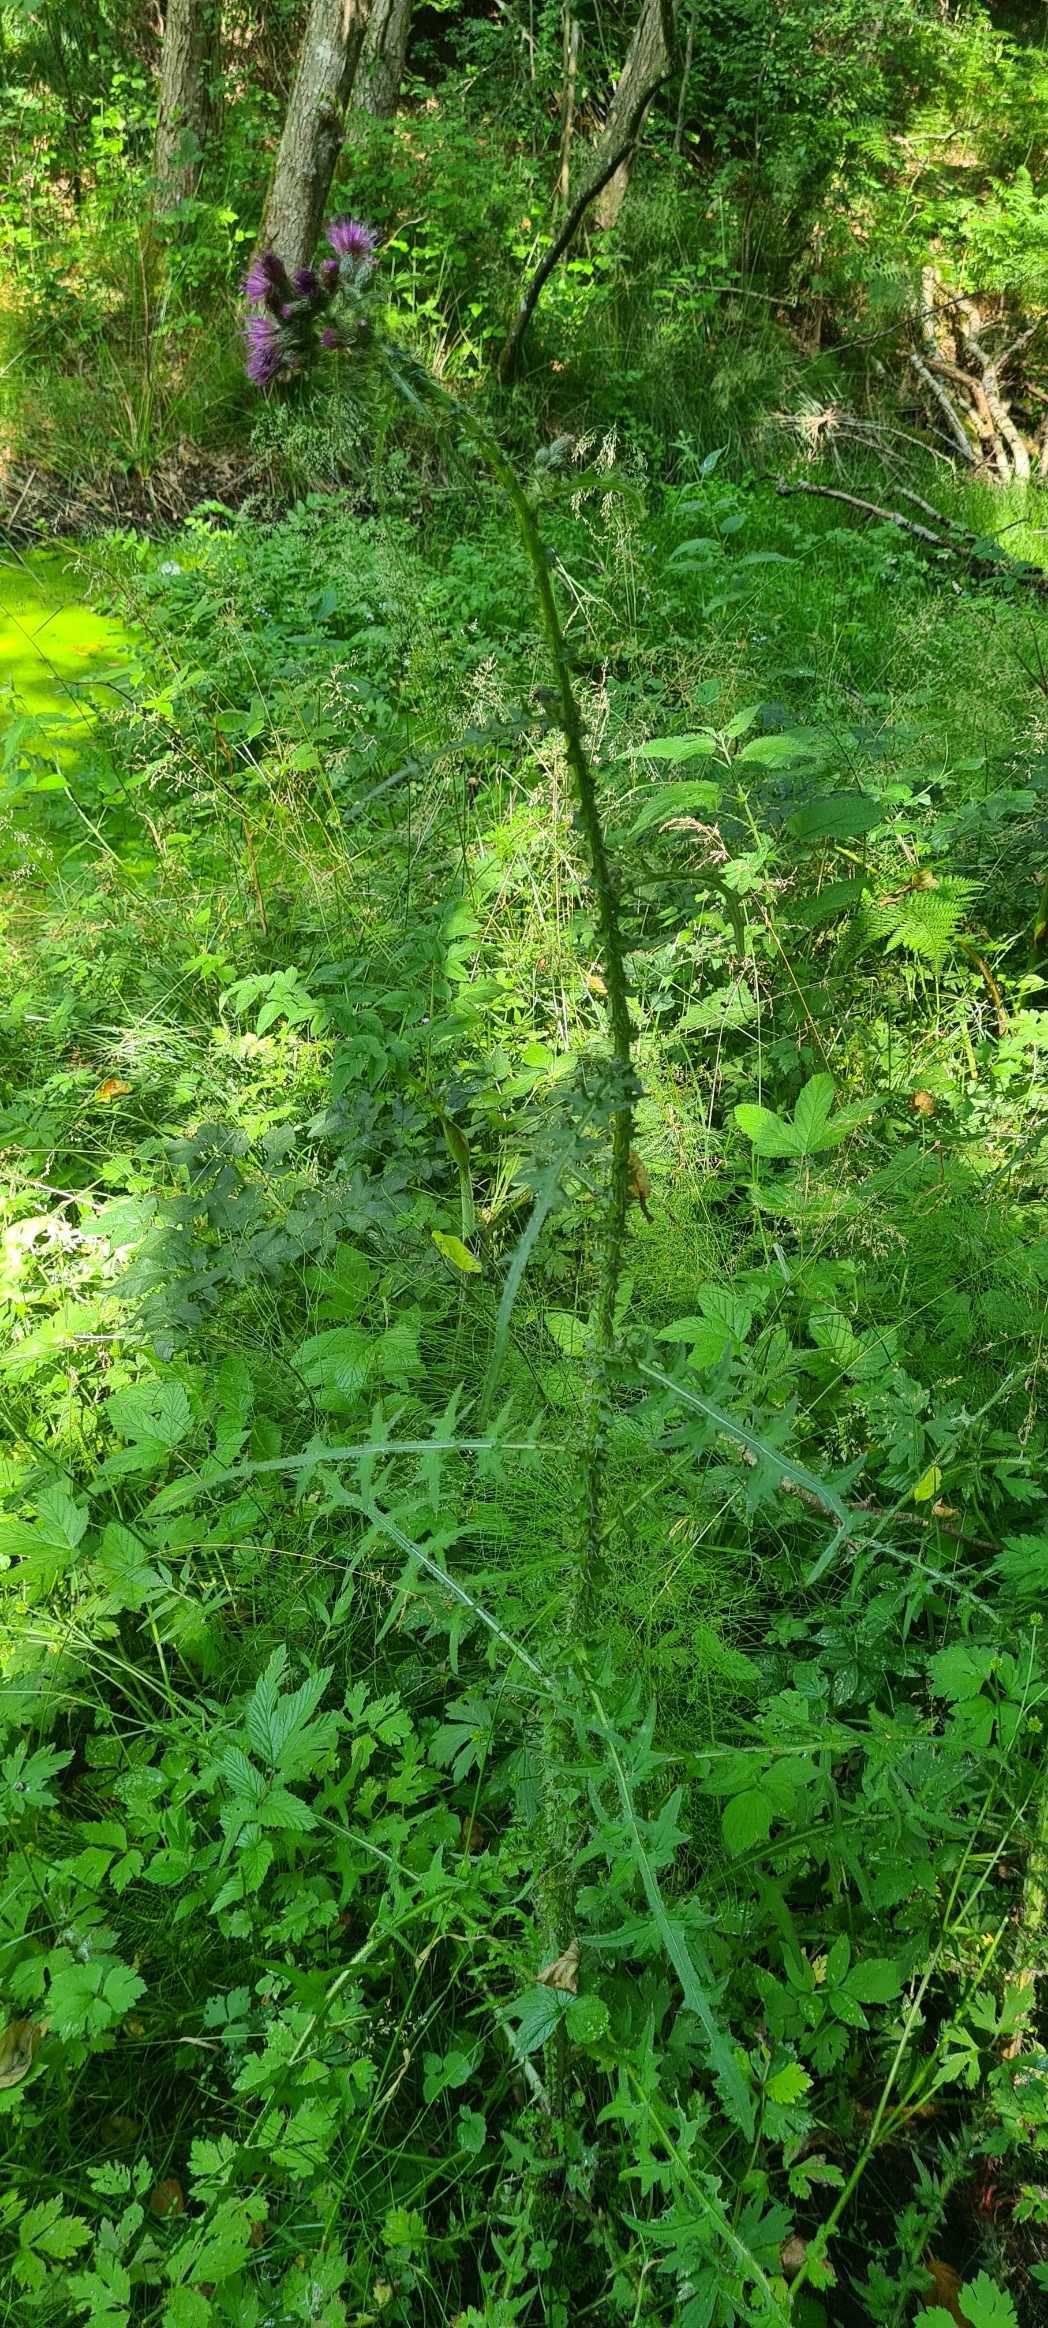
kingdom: Plantae
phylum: Tracheophyta
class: Magnoliopsida
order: Asterales
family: Asteraceae
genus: Cirsium
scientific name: Cirsium palustre
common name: Kær-tidsel
